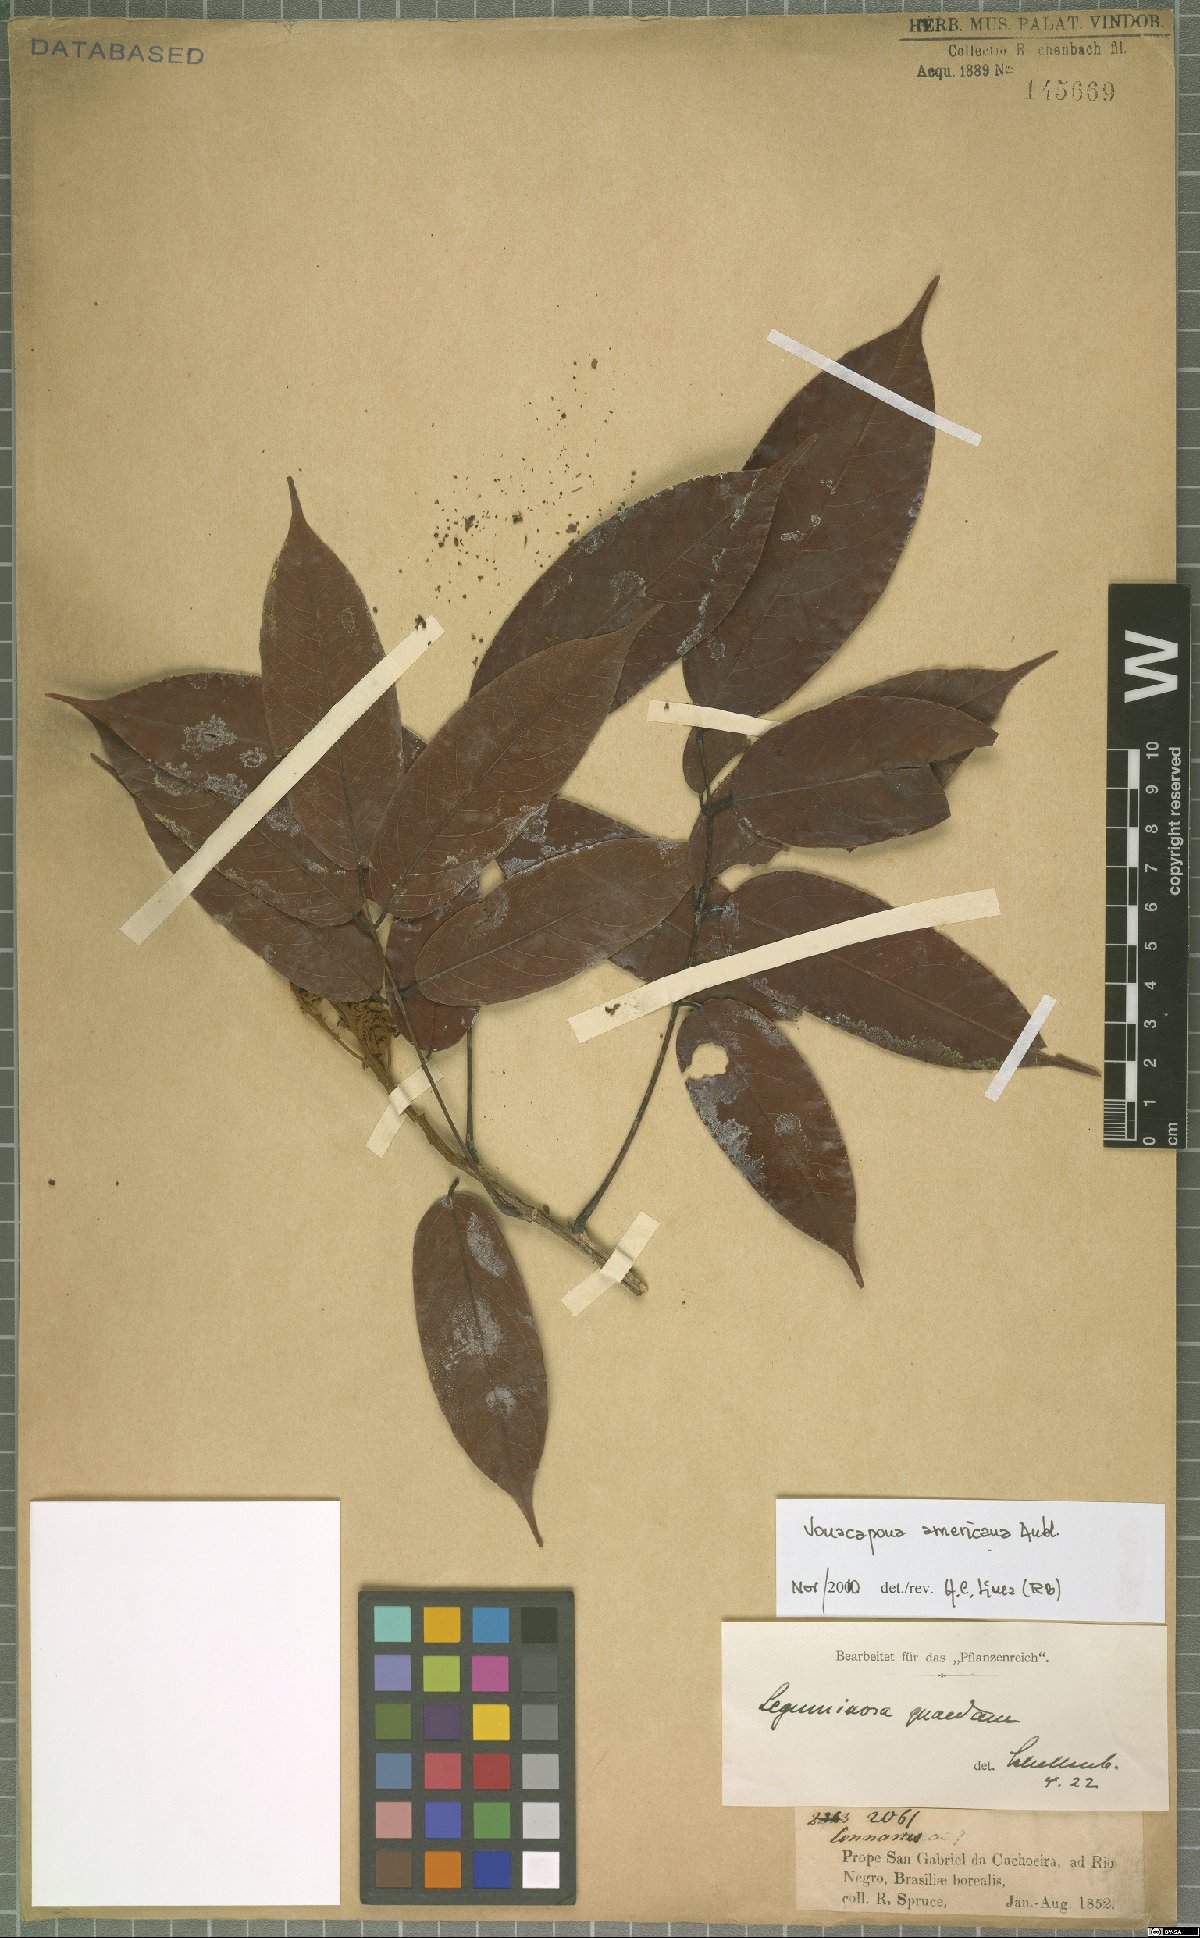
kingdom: Plantae
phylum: Tracheophyta
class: Magnoliopsida
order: Fabales
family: Fabaceae
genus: Vouacapoua
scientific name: Vouacapoua americana
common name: Partridgewood
